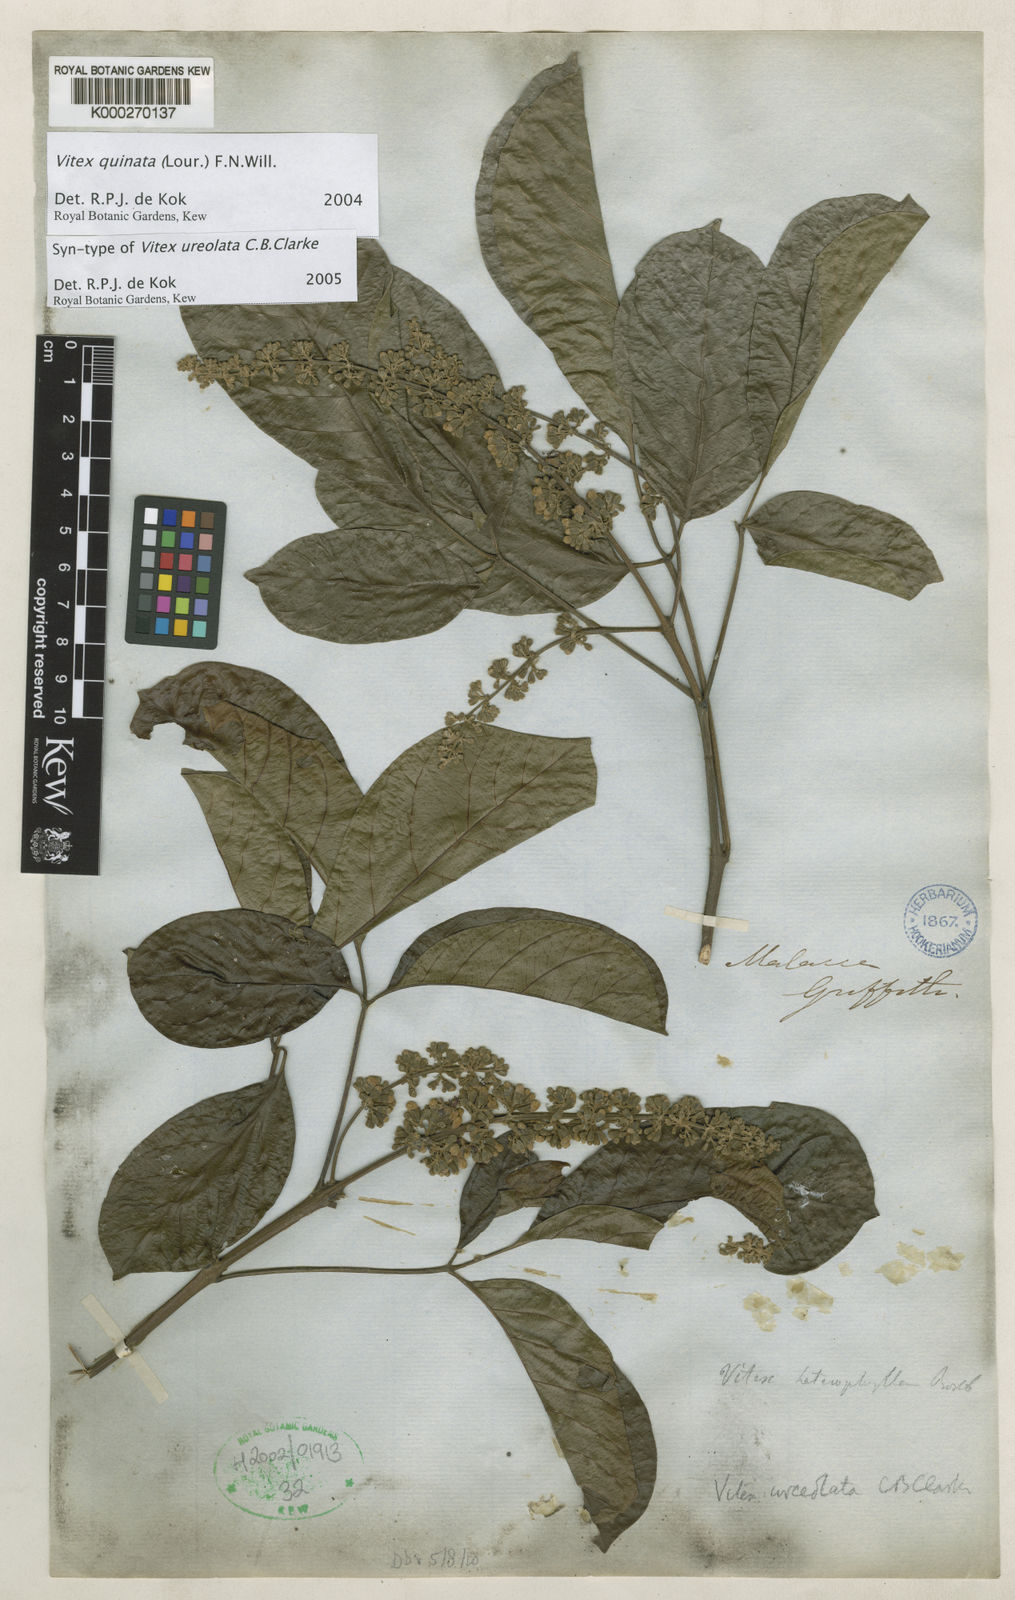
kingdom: Plantae
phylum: Tracheophyta
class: Magnoliopsida
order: Lamiales
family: Lamiaceae
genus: Vitex
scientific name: Vitex quinata
